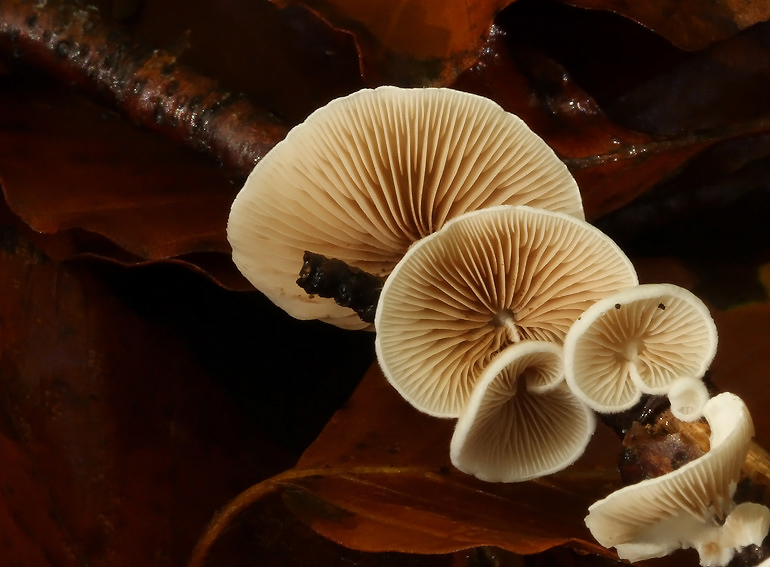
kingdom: Fungi
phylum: Basidiomycota
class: Agaricomycetes
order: Agaricales
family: Crepidotaceae
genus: Crepidotus
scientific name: Crepidotus variabilis
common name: forskelligformet muslingesvamp
